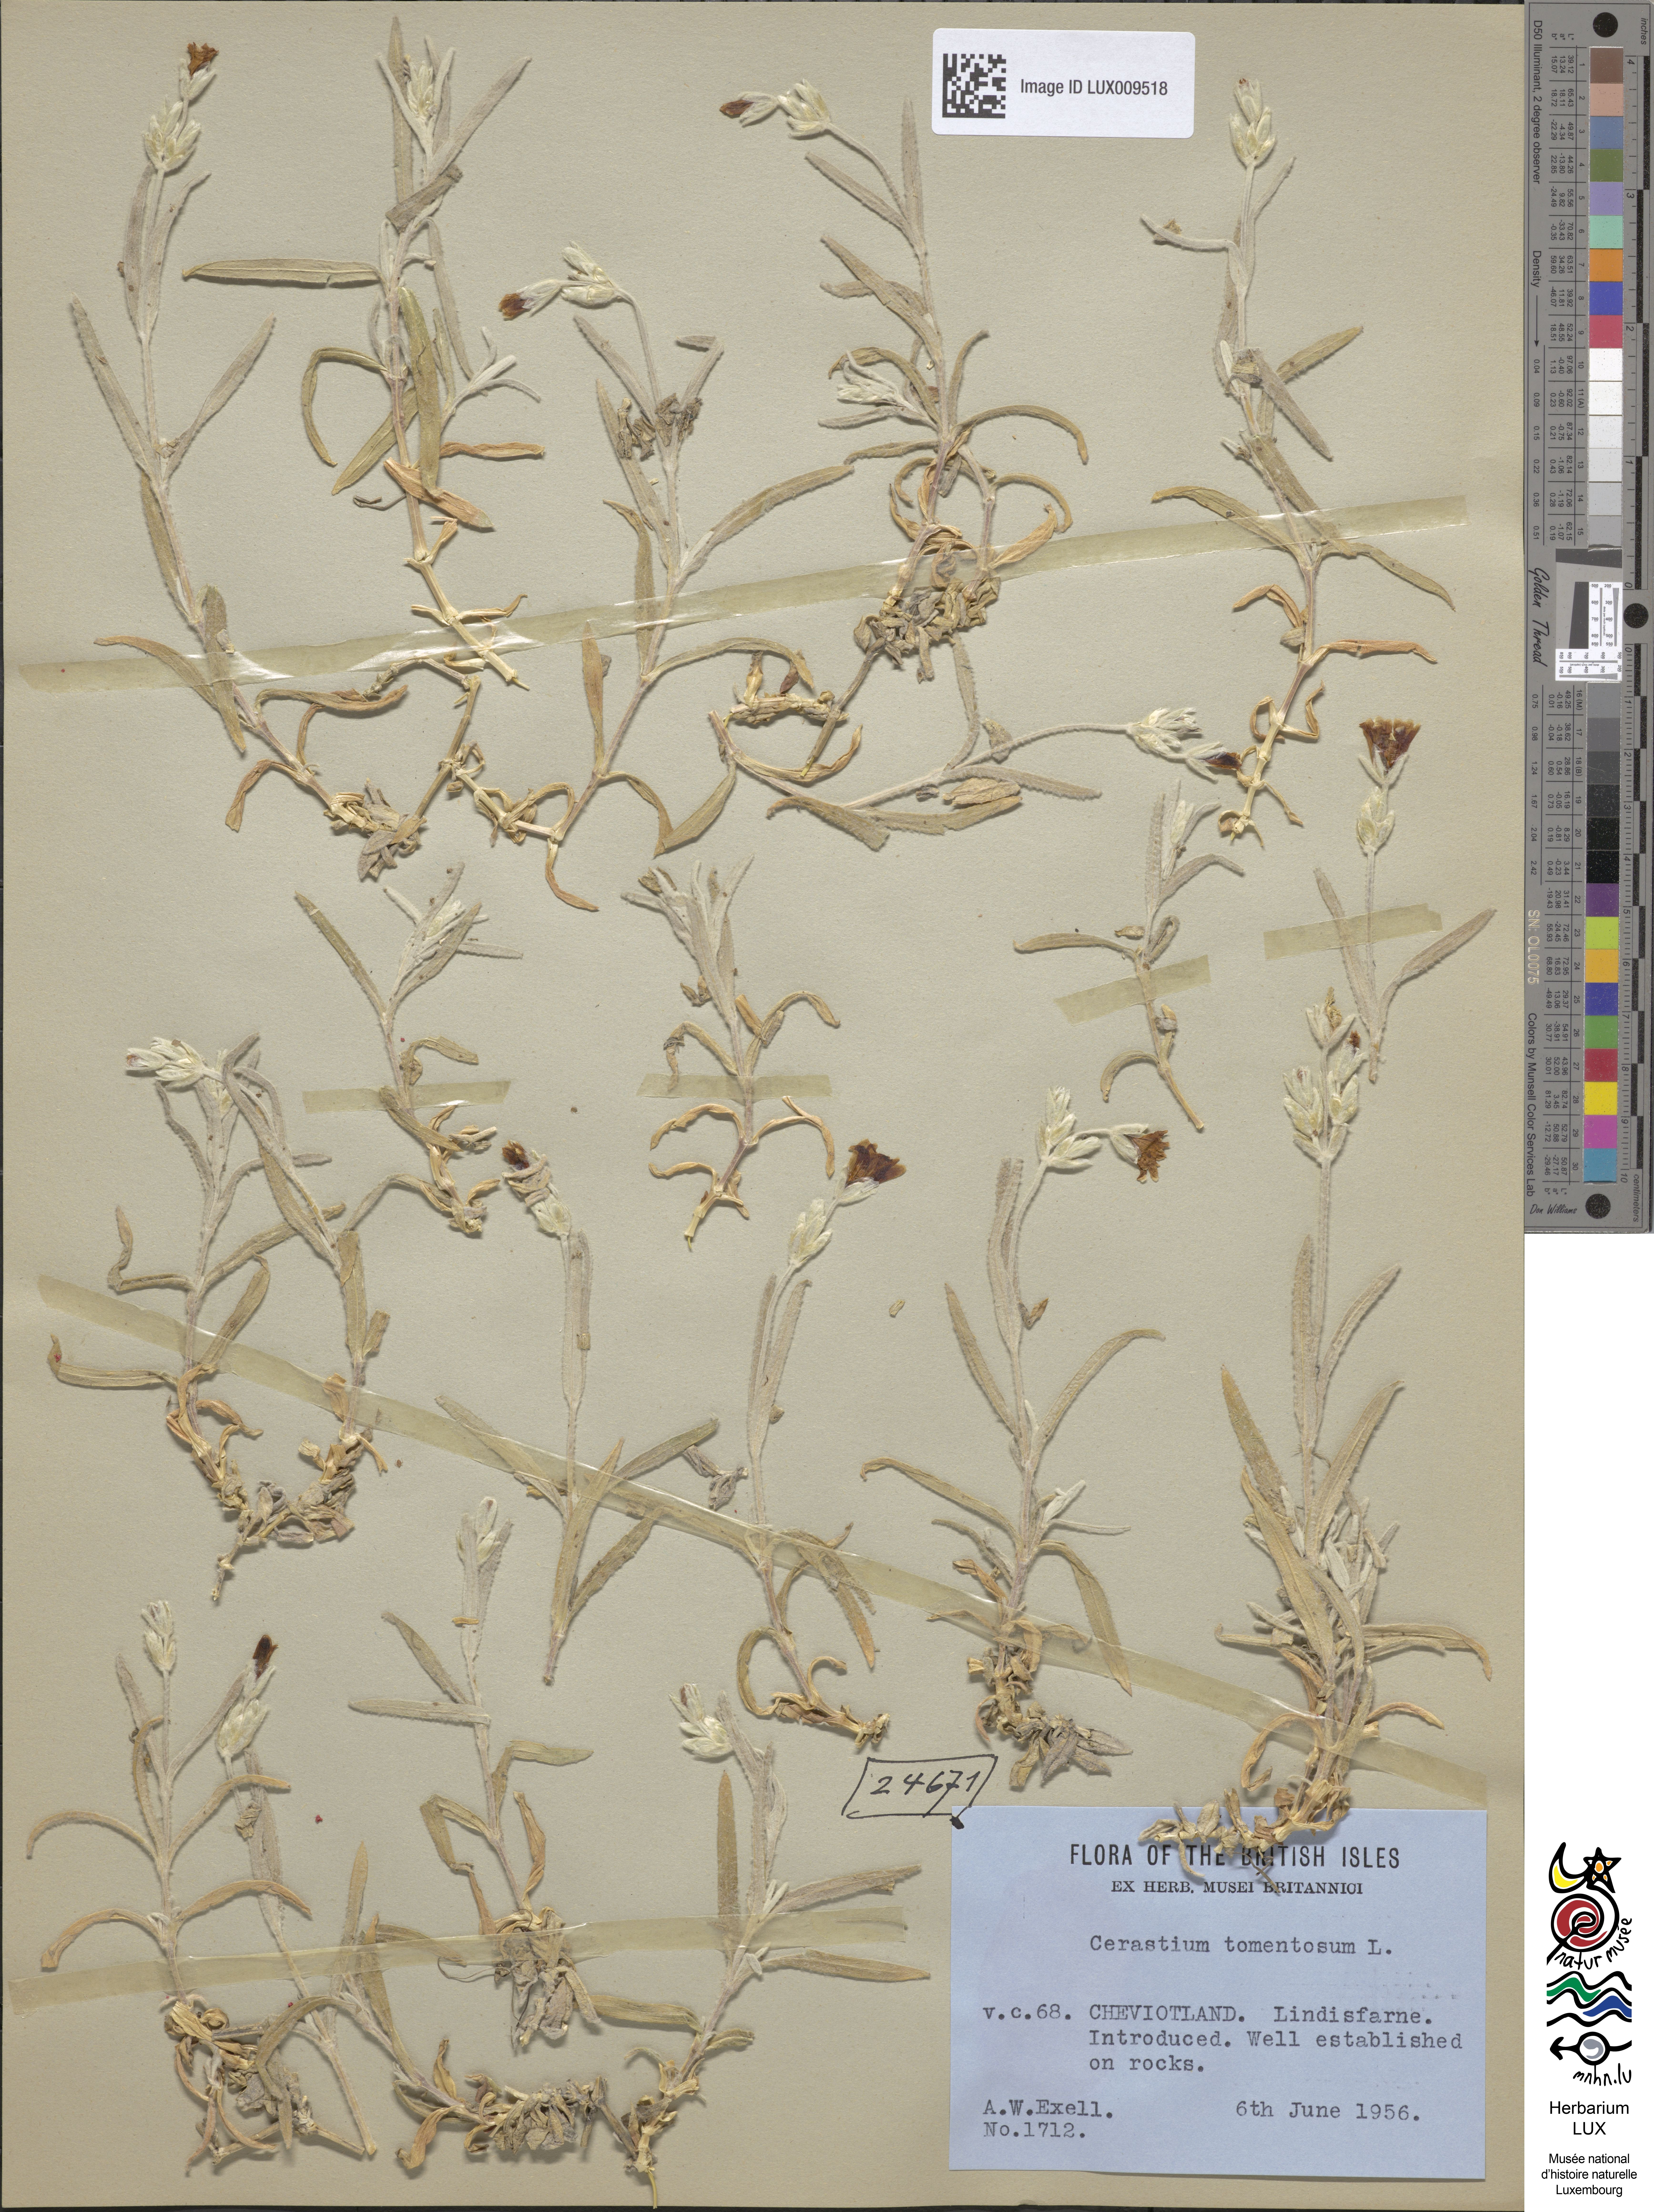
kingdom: Plantae
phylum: Tracheophyta
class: Magnoliopsida
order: Caryophyllales
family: Caryophyllaceae
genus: Cerastium
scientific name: Cerastium tomentosum
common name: Snow-in-summer
